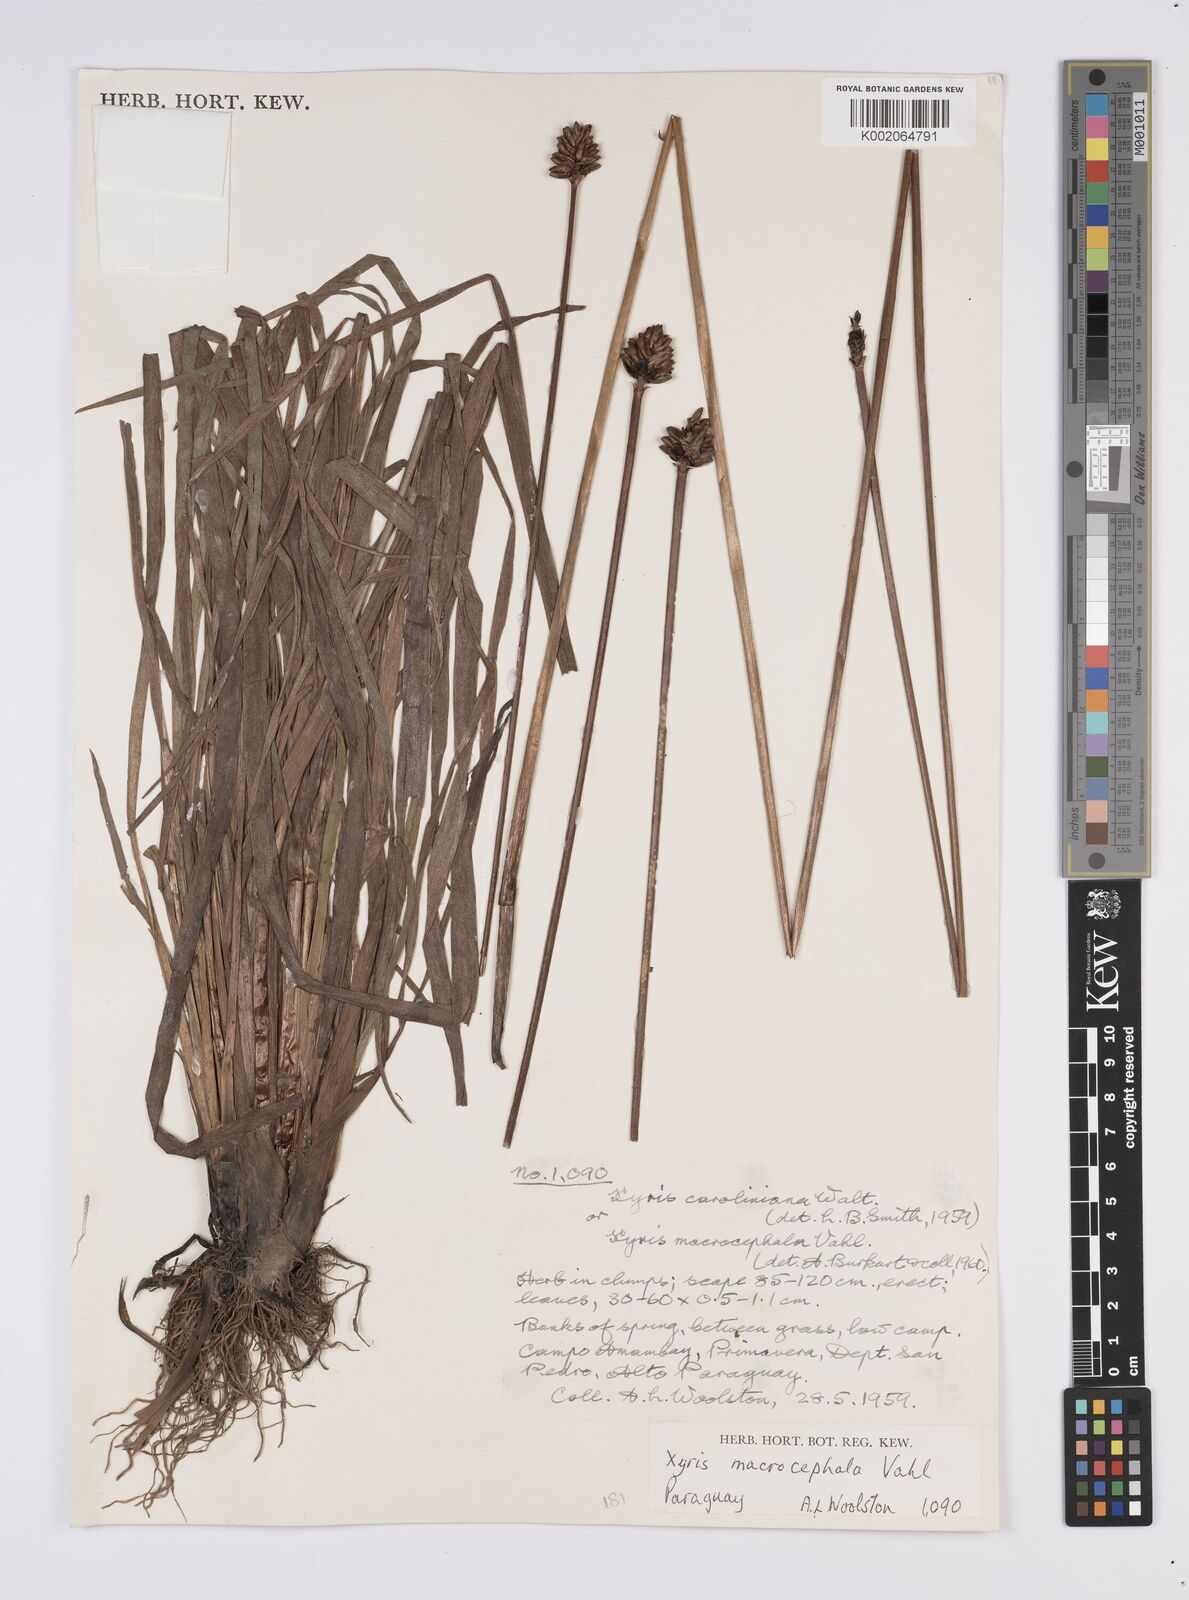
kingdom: Plantae
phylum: Tracheophyta
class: Liliopsida
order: Poales
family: Xyridaceae
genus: Xyris
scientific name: Xyris jupicai
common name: Richard's yelloweyed grass
